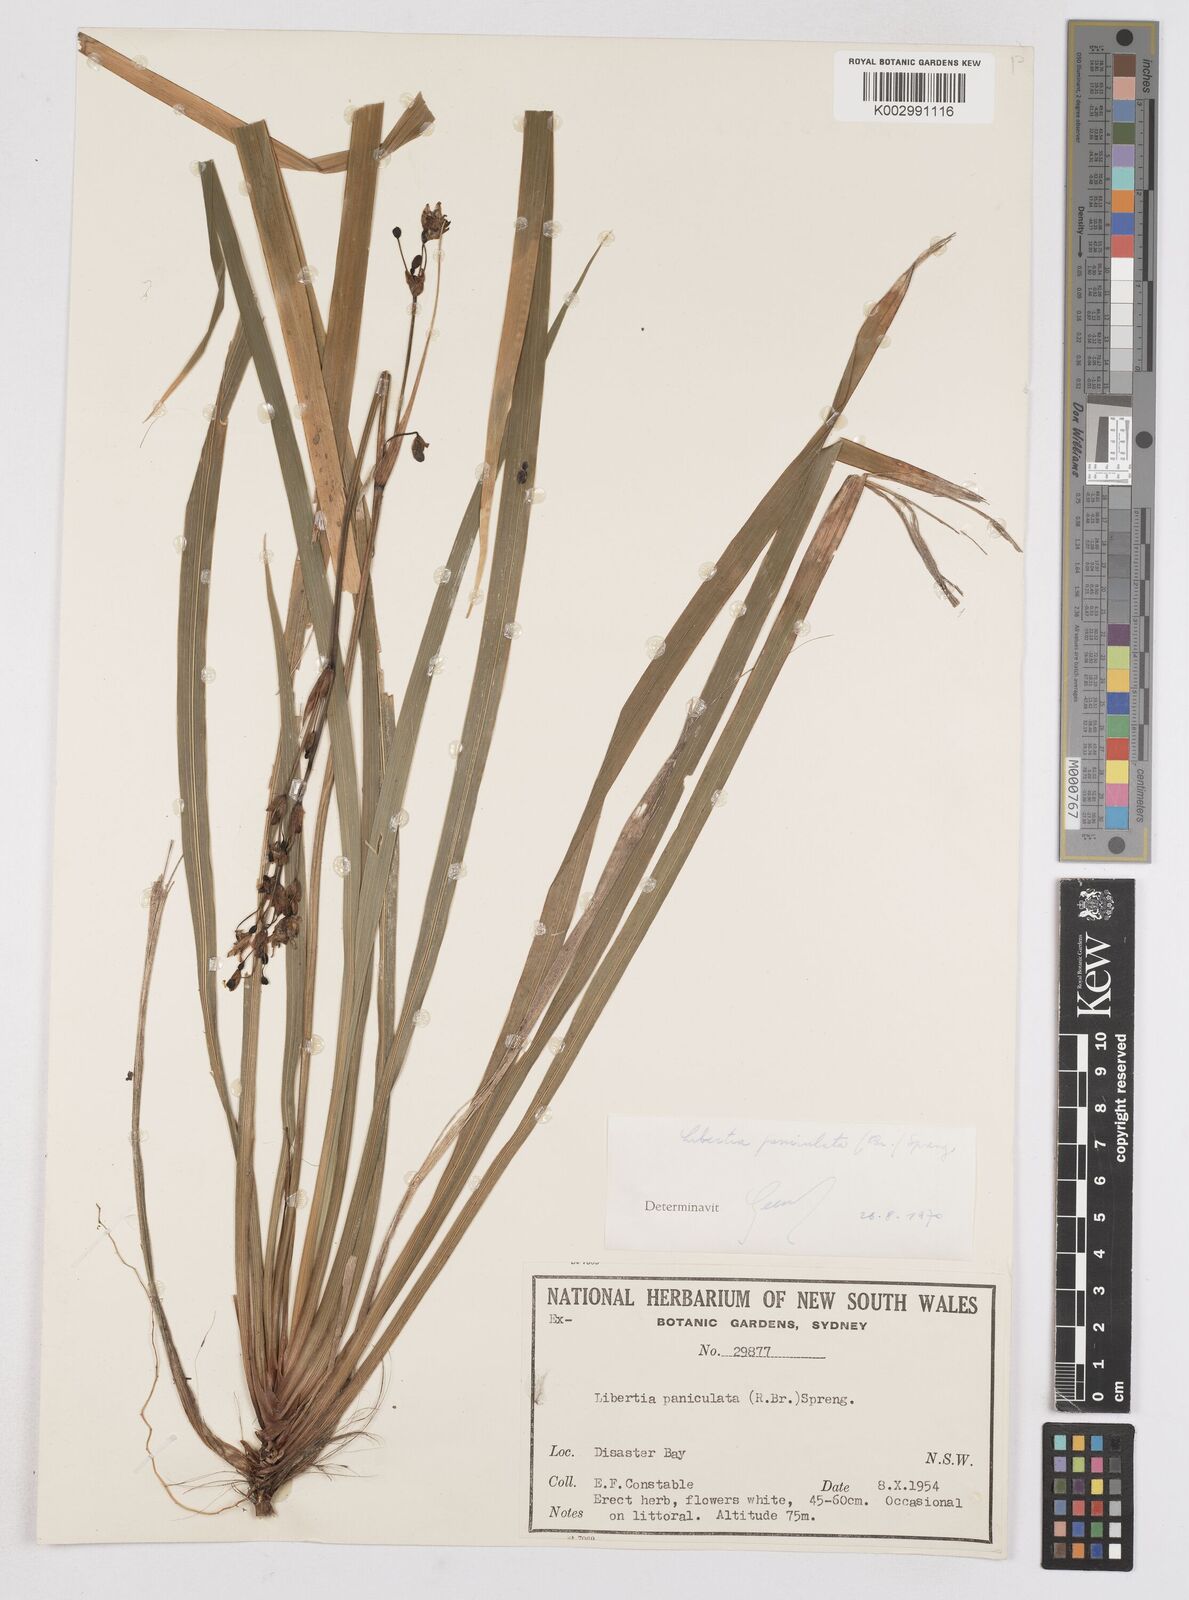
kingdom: Plantae
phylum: Tracheophyta
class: Liliopsida
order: Asparagales
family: Iridaceae
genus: Libertia
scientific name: Libertia paniculata
